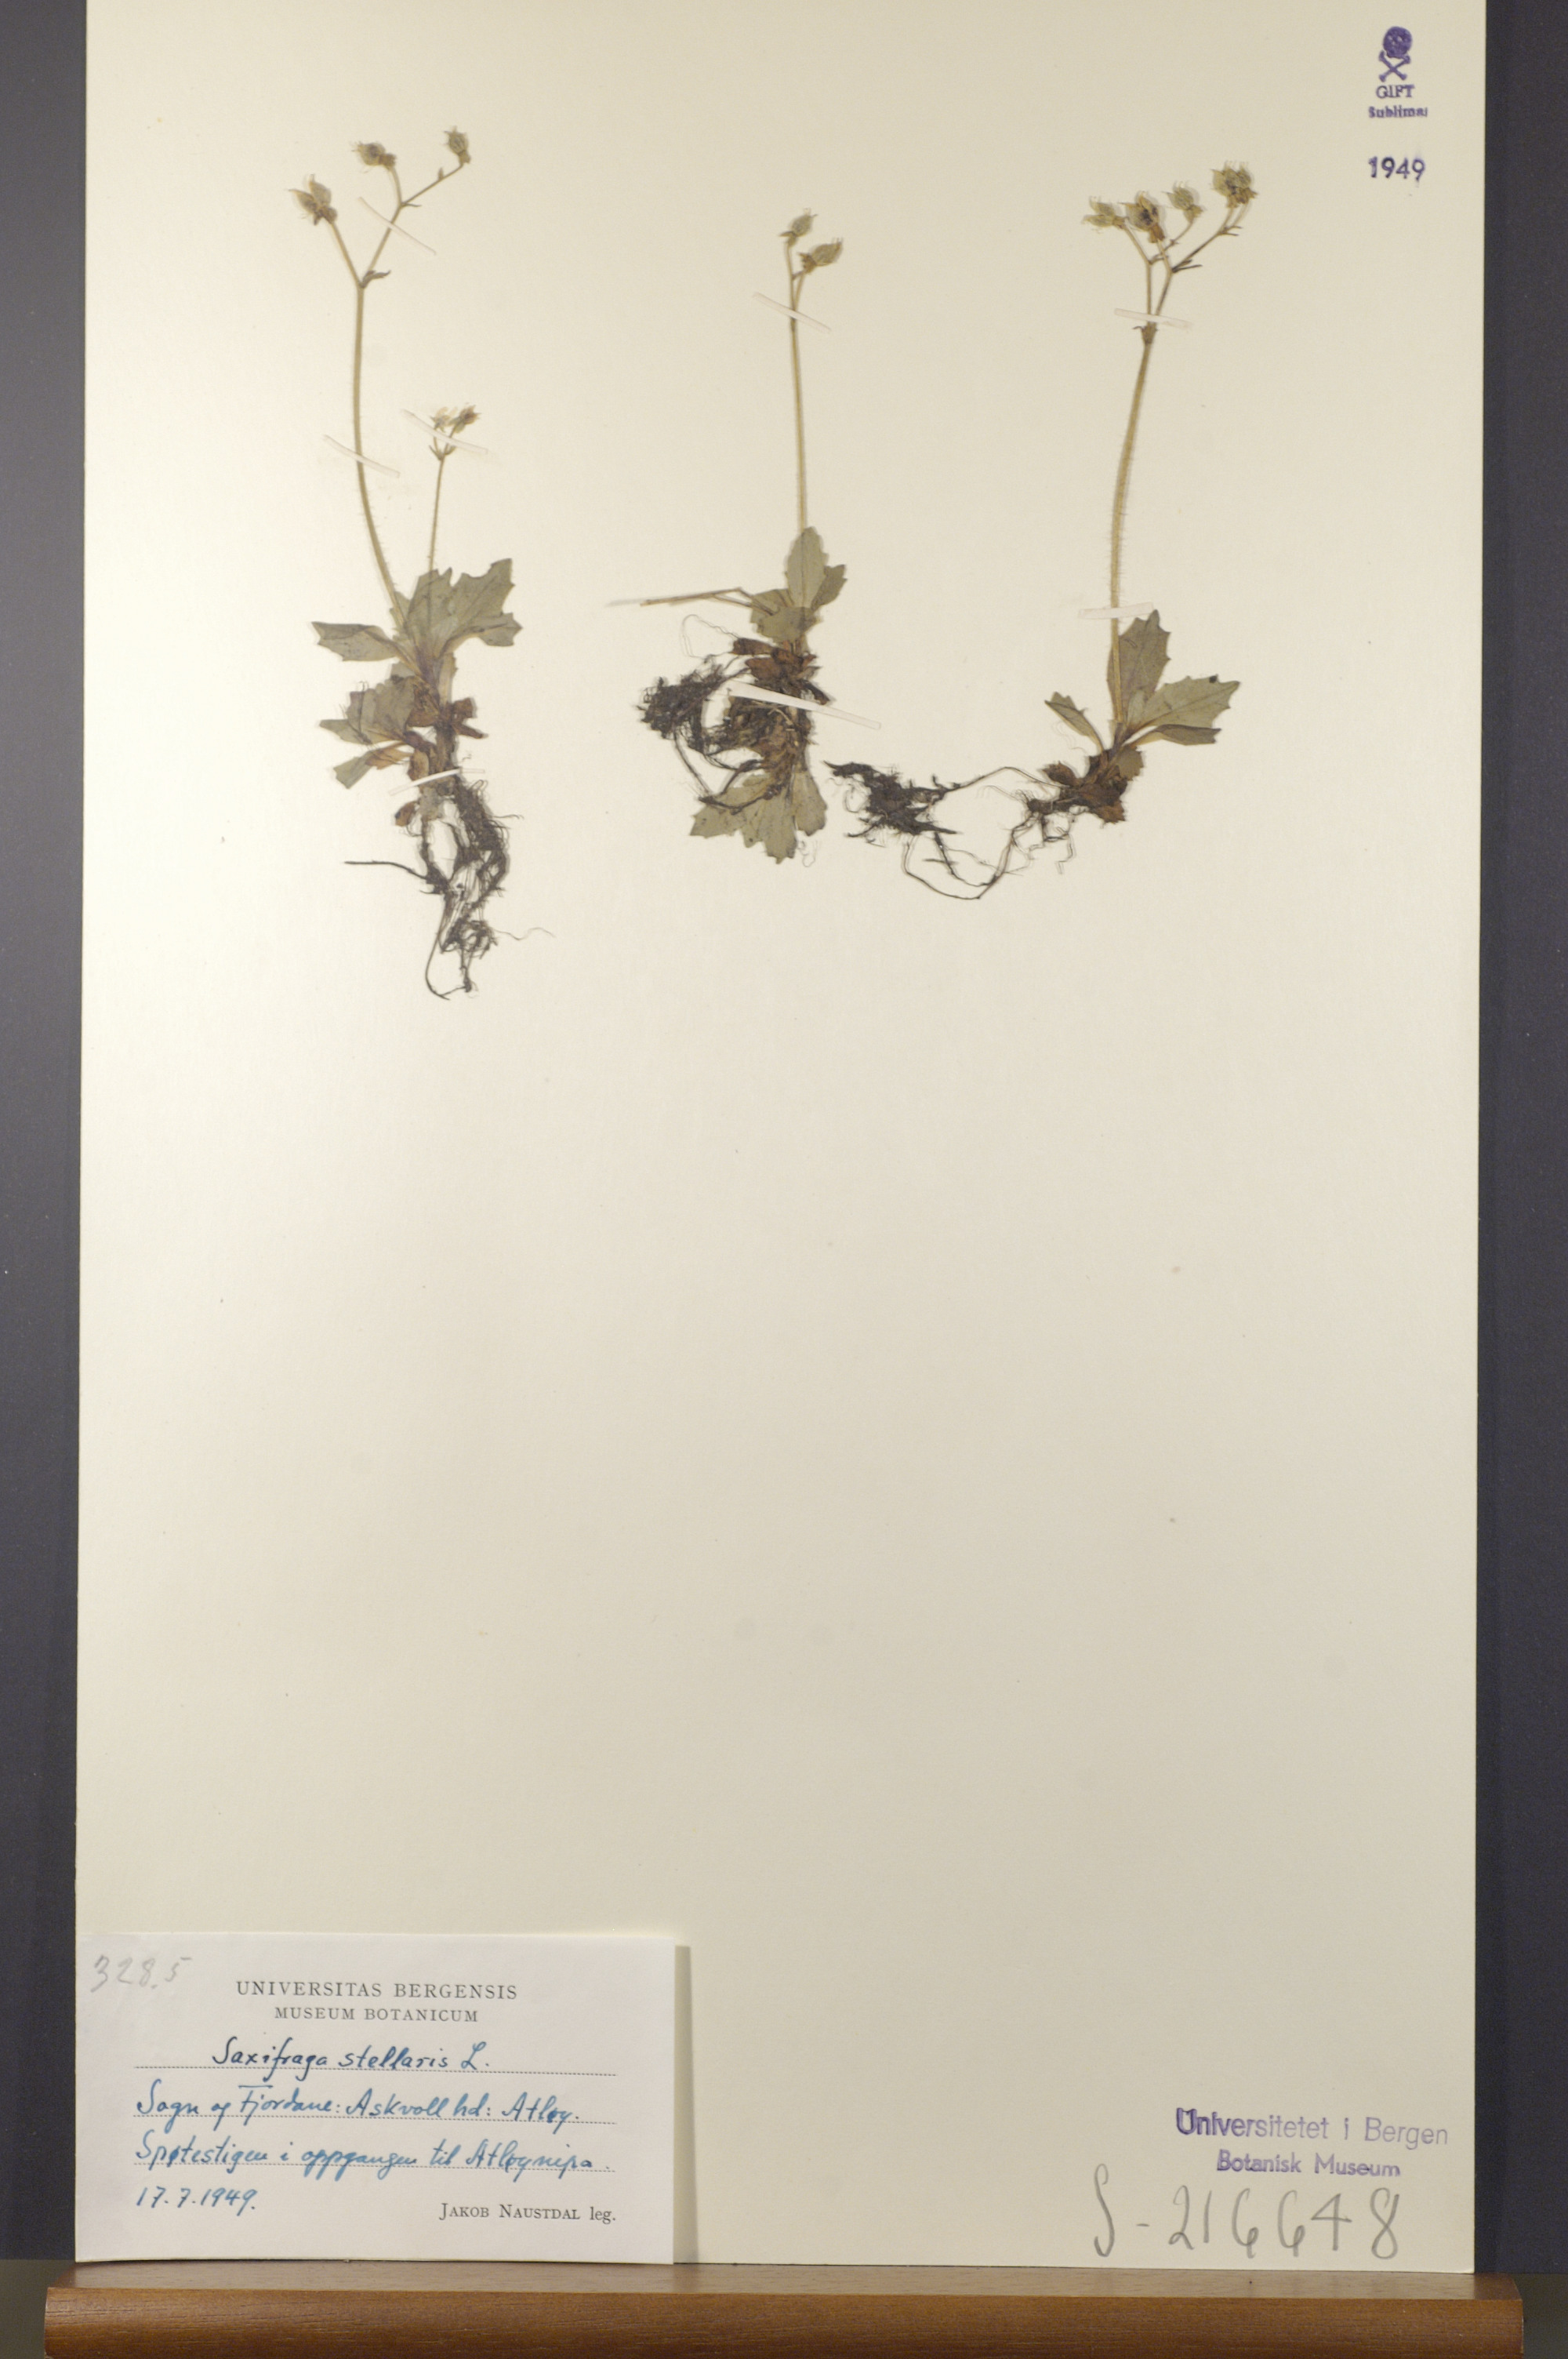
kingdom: Plantae
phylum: Tracheophyta
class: Magnoliopsida
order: Saxifragales
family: Saxifragaceae
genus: Micranthes
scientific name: Micranthes stellaris
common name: Starry saxifrage
